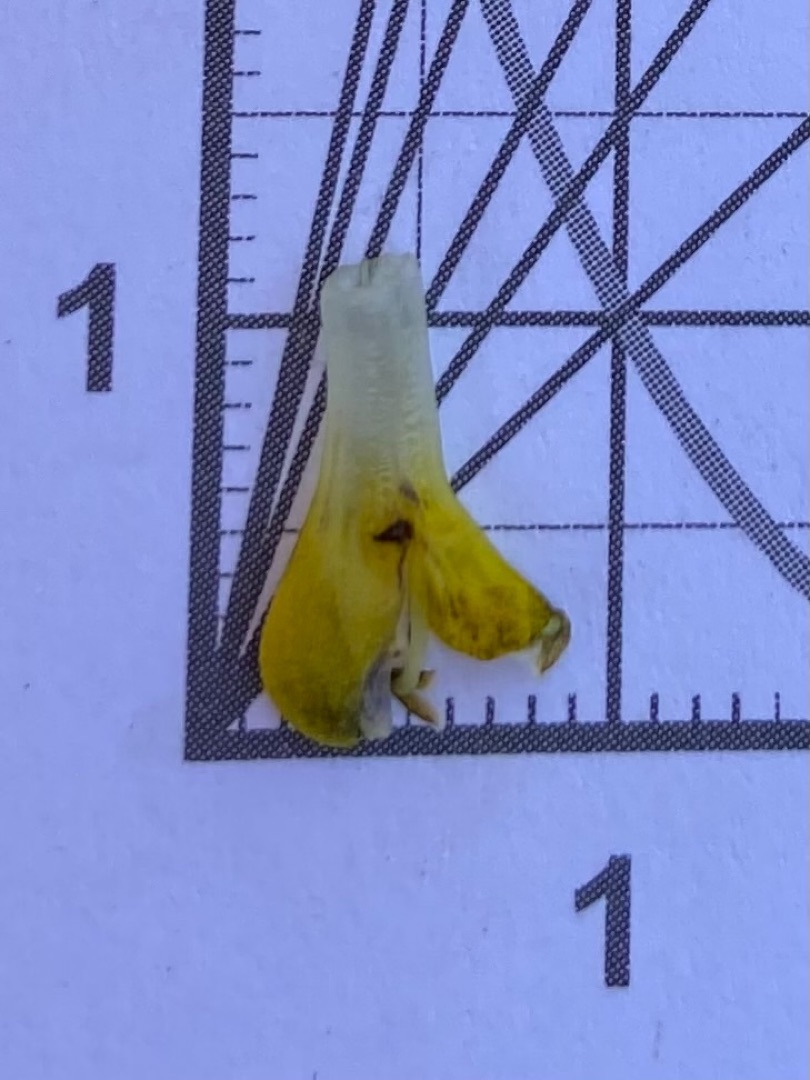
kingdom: Plantae
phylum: Tracheophyta
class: Magnoliopsida
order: Lamiales
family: Orobanchaceae
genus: Rhinanthus
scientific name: Rhinanthus minor
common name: Liden skjaller
